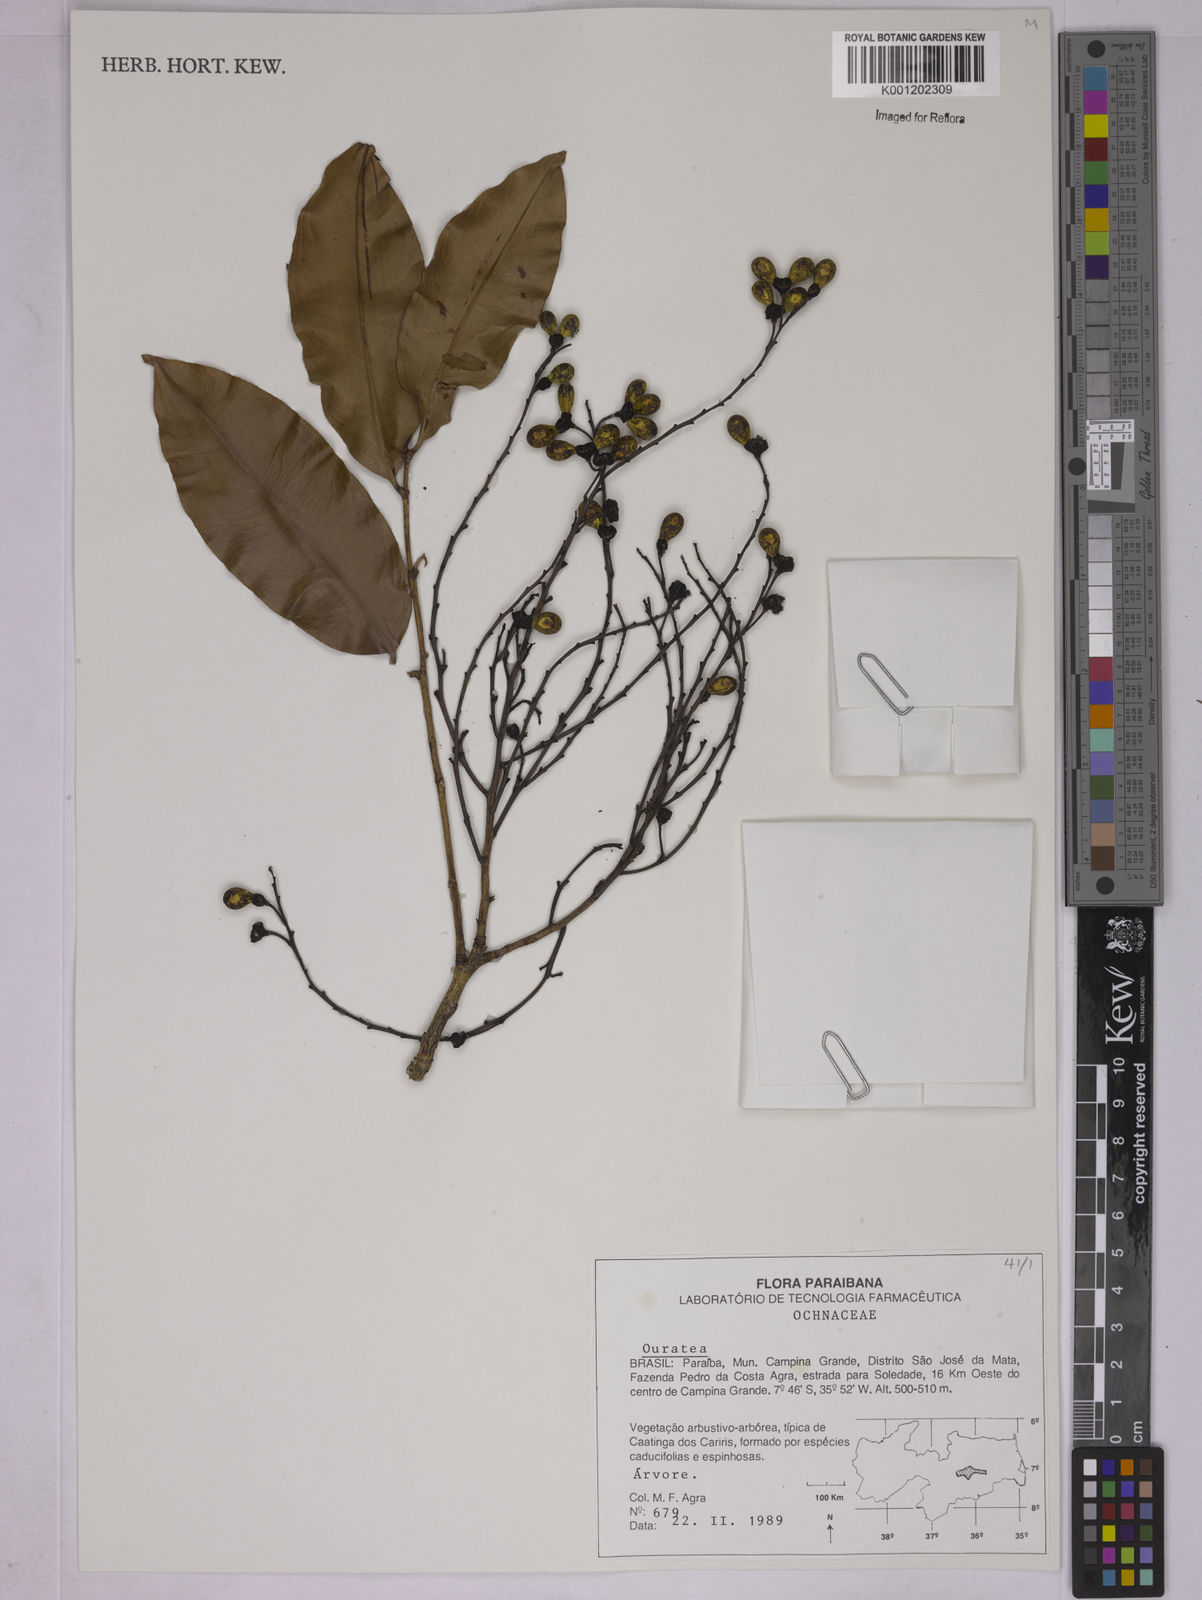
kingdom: Plantae
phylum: Tracheophyta
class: Magnoliopsida
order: Malpighiales
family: Ochnaceae
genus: Ouratea
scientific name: Ouratea
